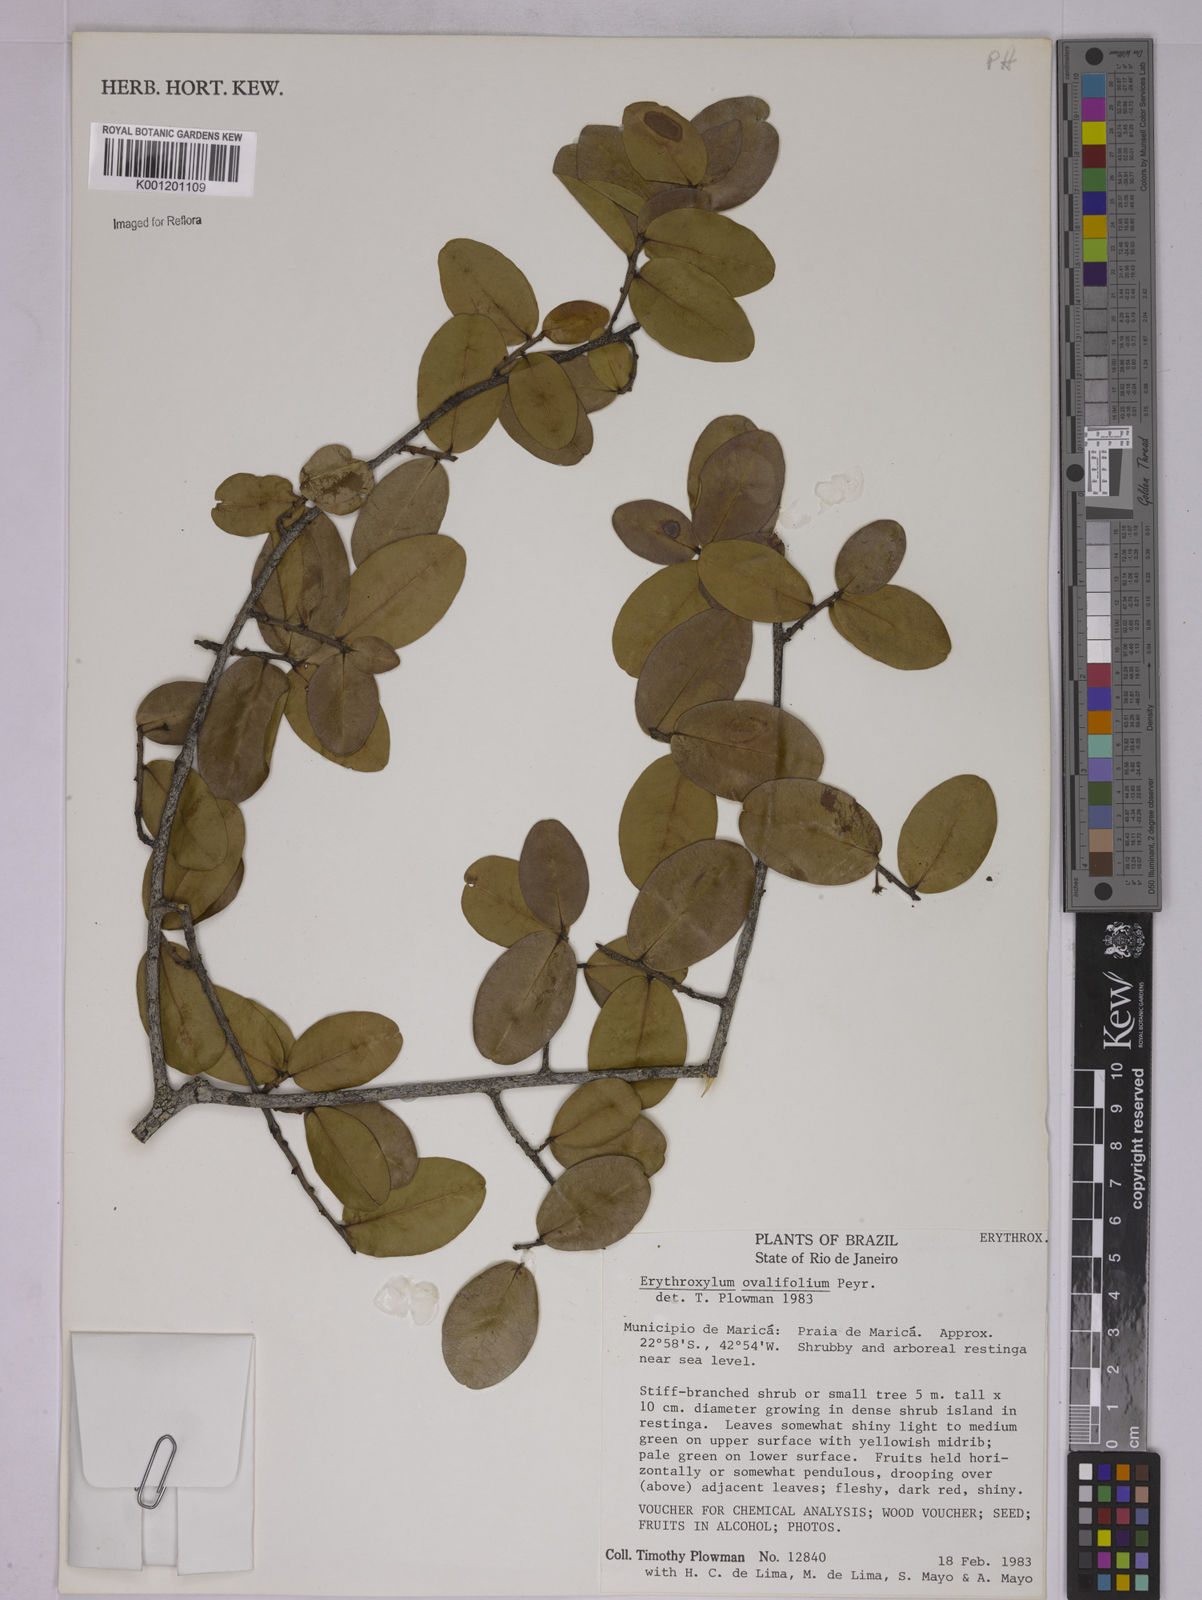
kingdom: Plantae
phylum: Tracheophyta
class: Magnoliopsida
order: Malpighiales
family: Erythroxylaceae
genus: Erythroxylum
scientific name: Erythroxylum ovalifolium
